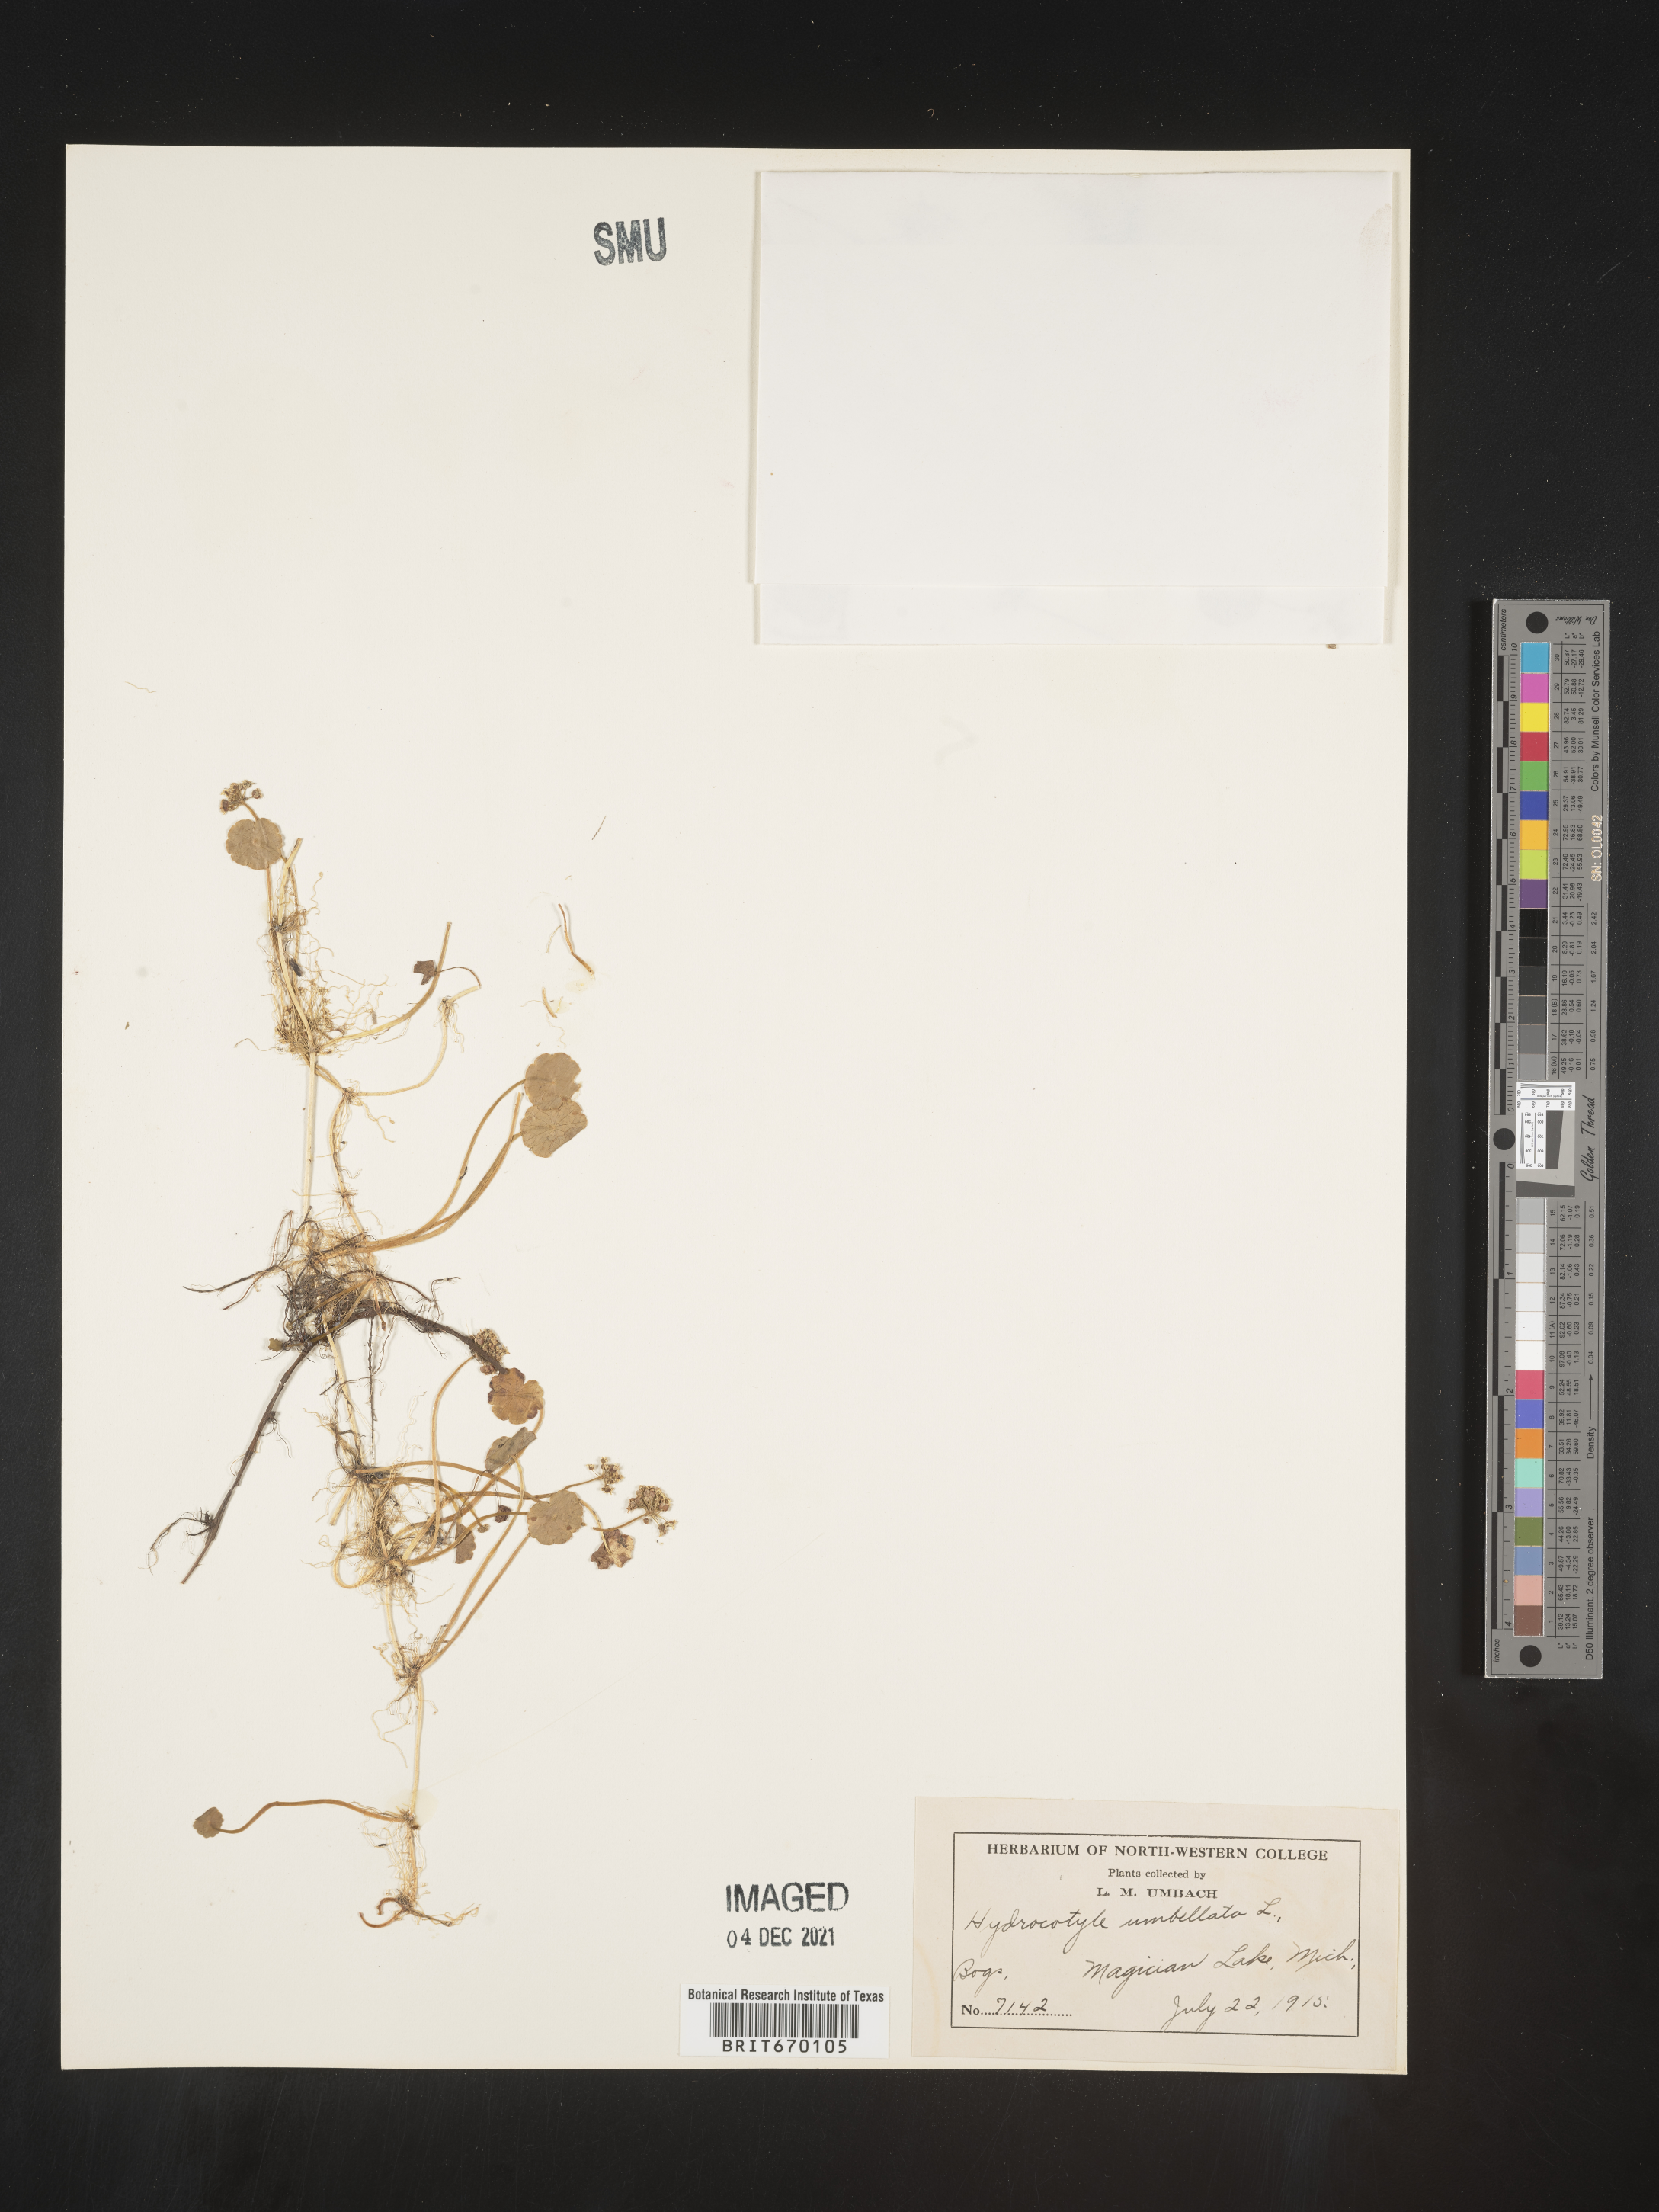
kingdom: Plantae
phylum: Tracheophyta
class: Magnoliopsida
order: Apiales
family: Araliaceae
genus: Hydrocotyle
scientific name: Hydrocotyle umbellata
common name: Water pennywort
